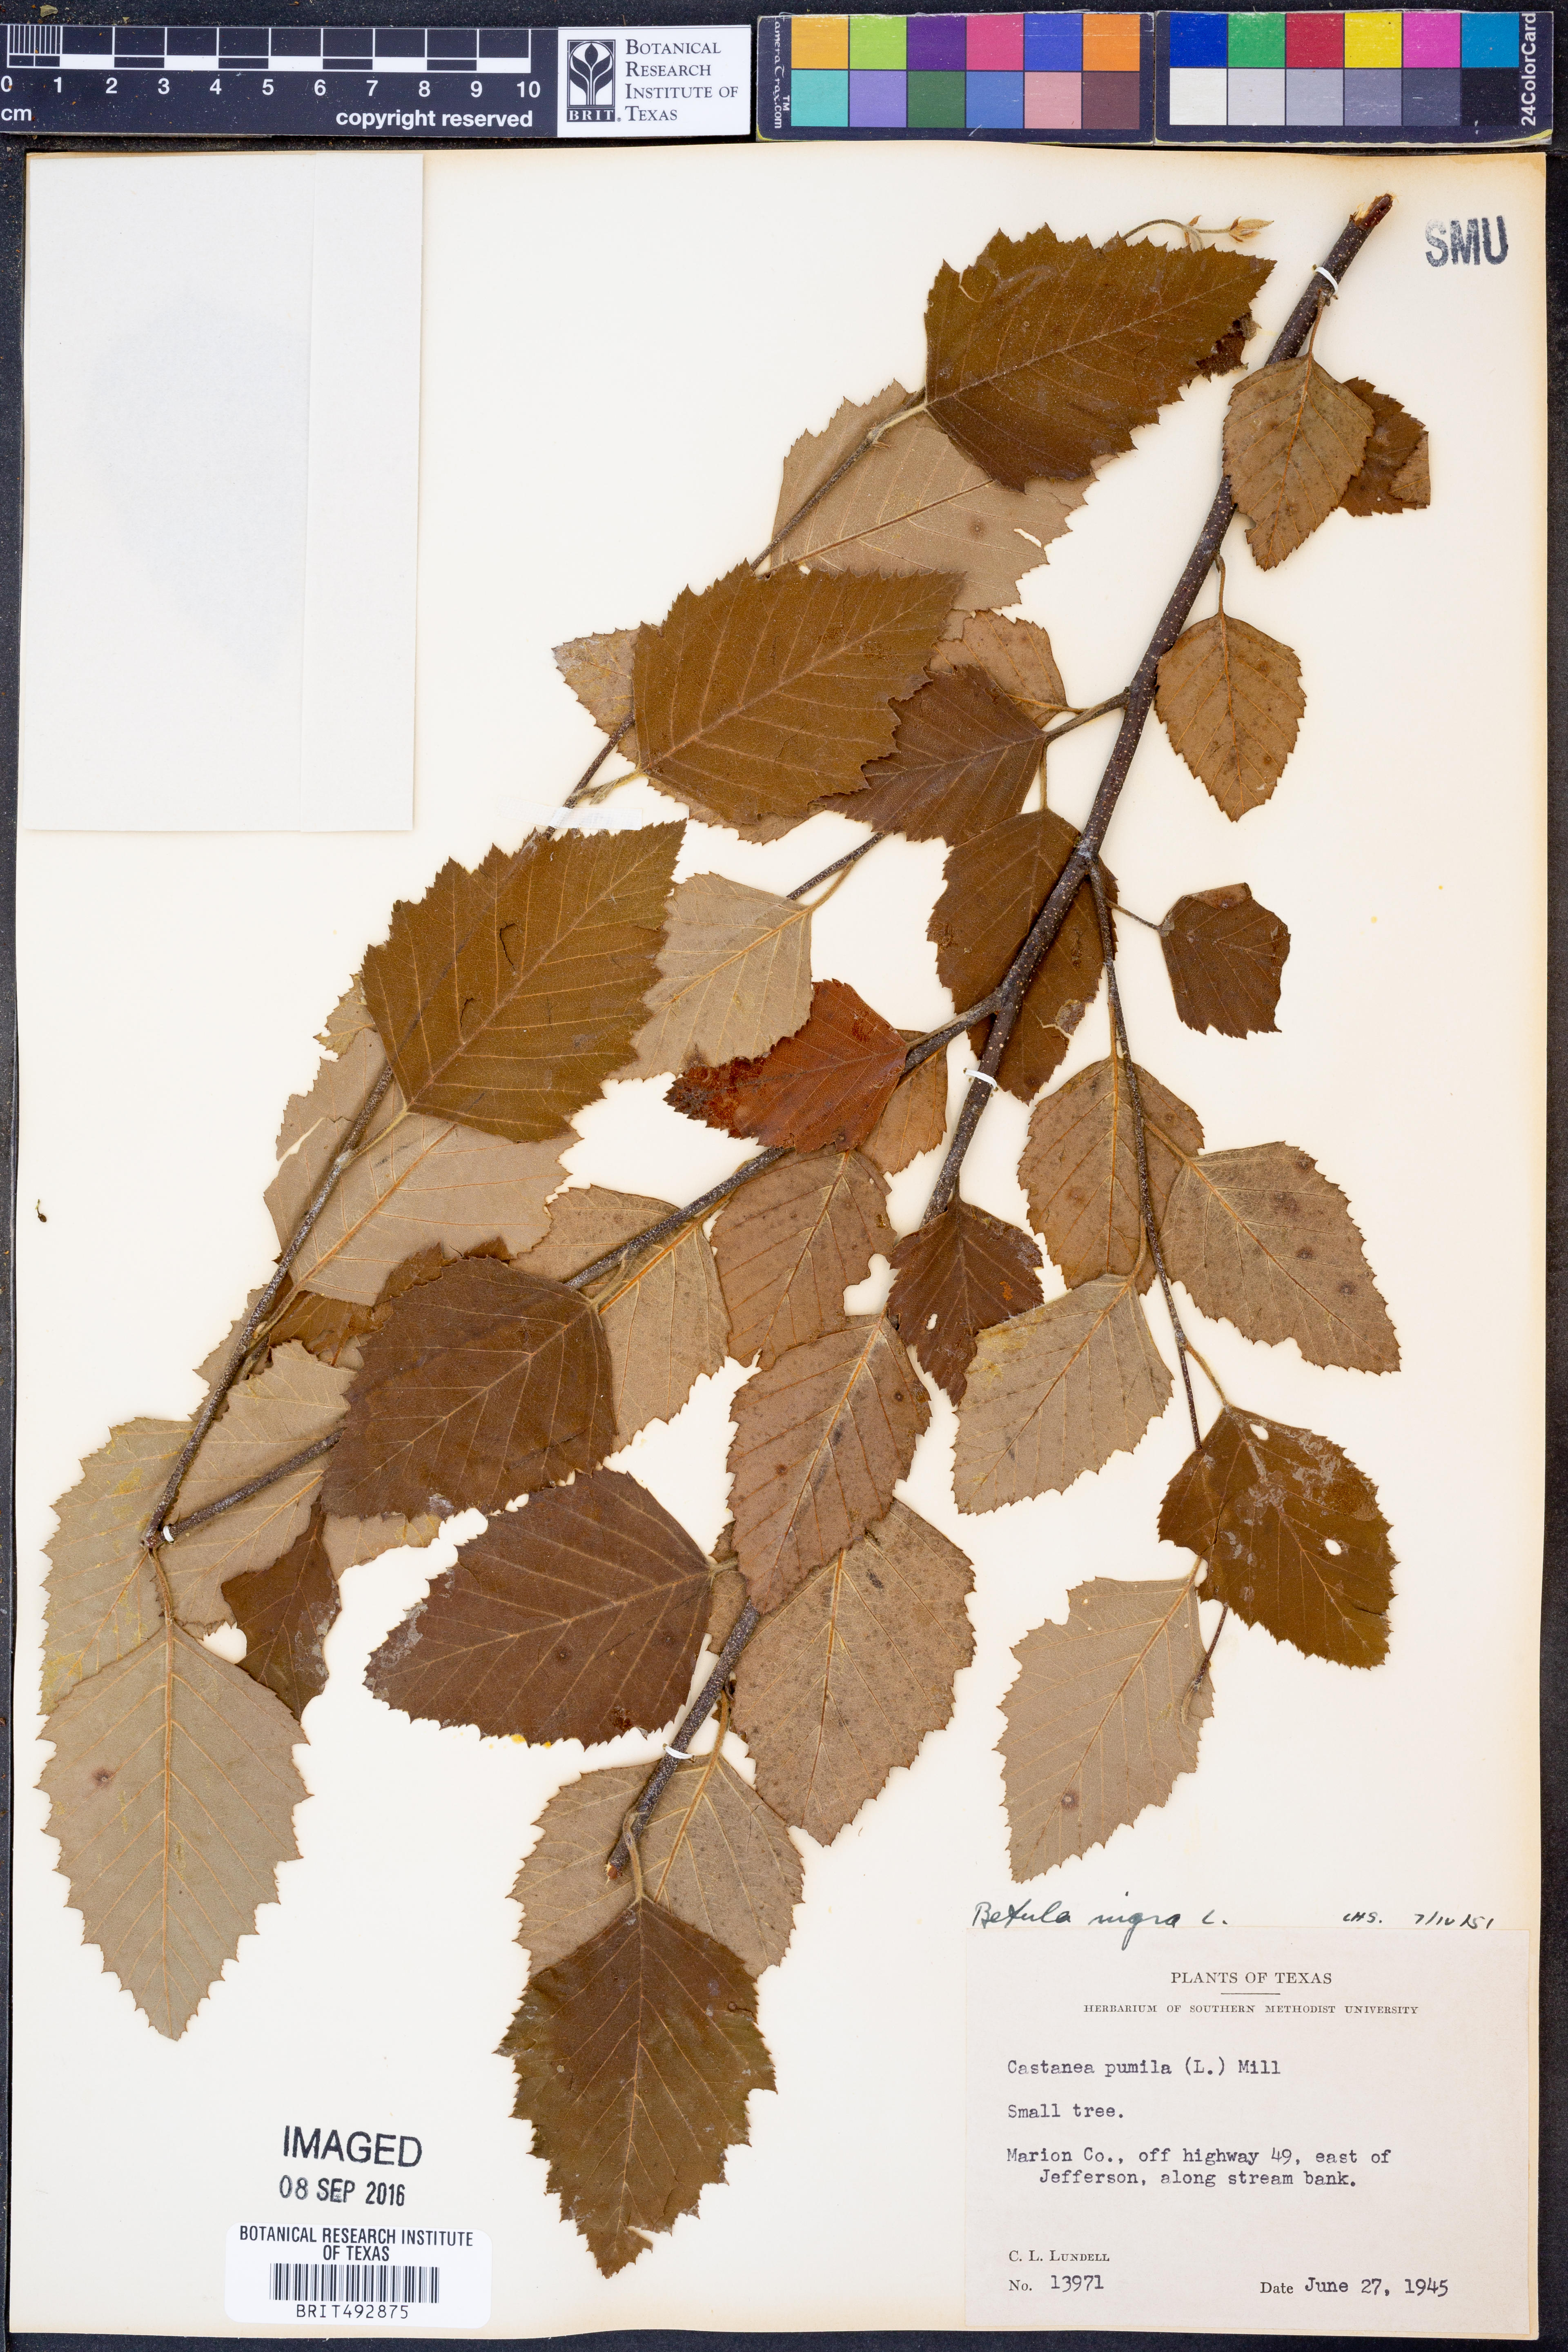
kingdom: Plantae
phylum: Tracheophyta
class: Magnoliopsida
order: Fagales
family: Betulaceae
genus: Betula
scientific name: Betula nigra
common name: Black birch
